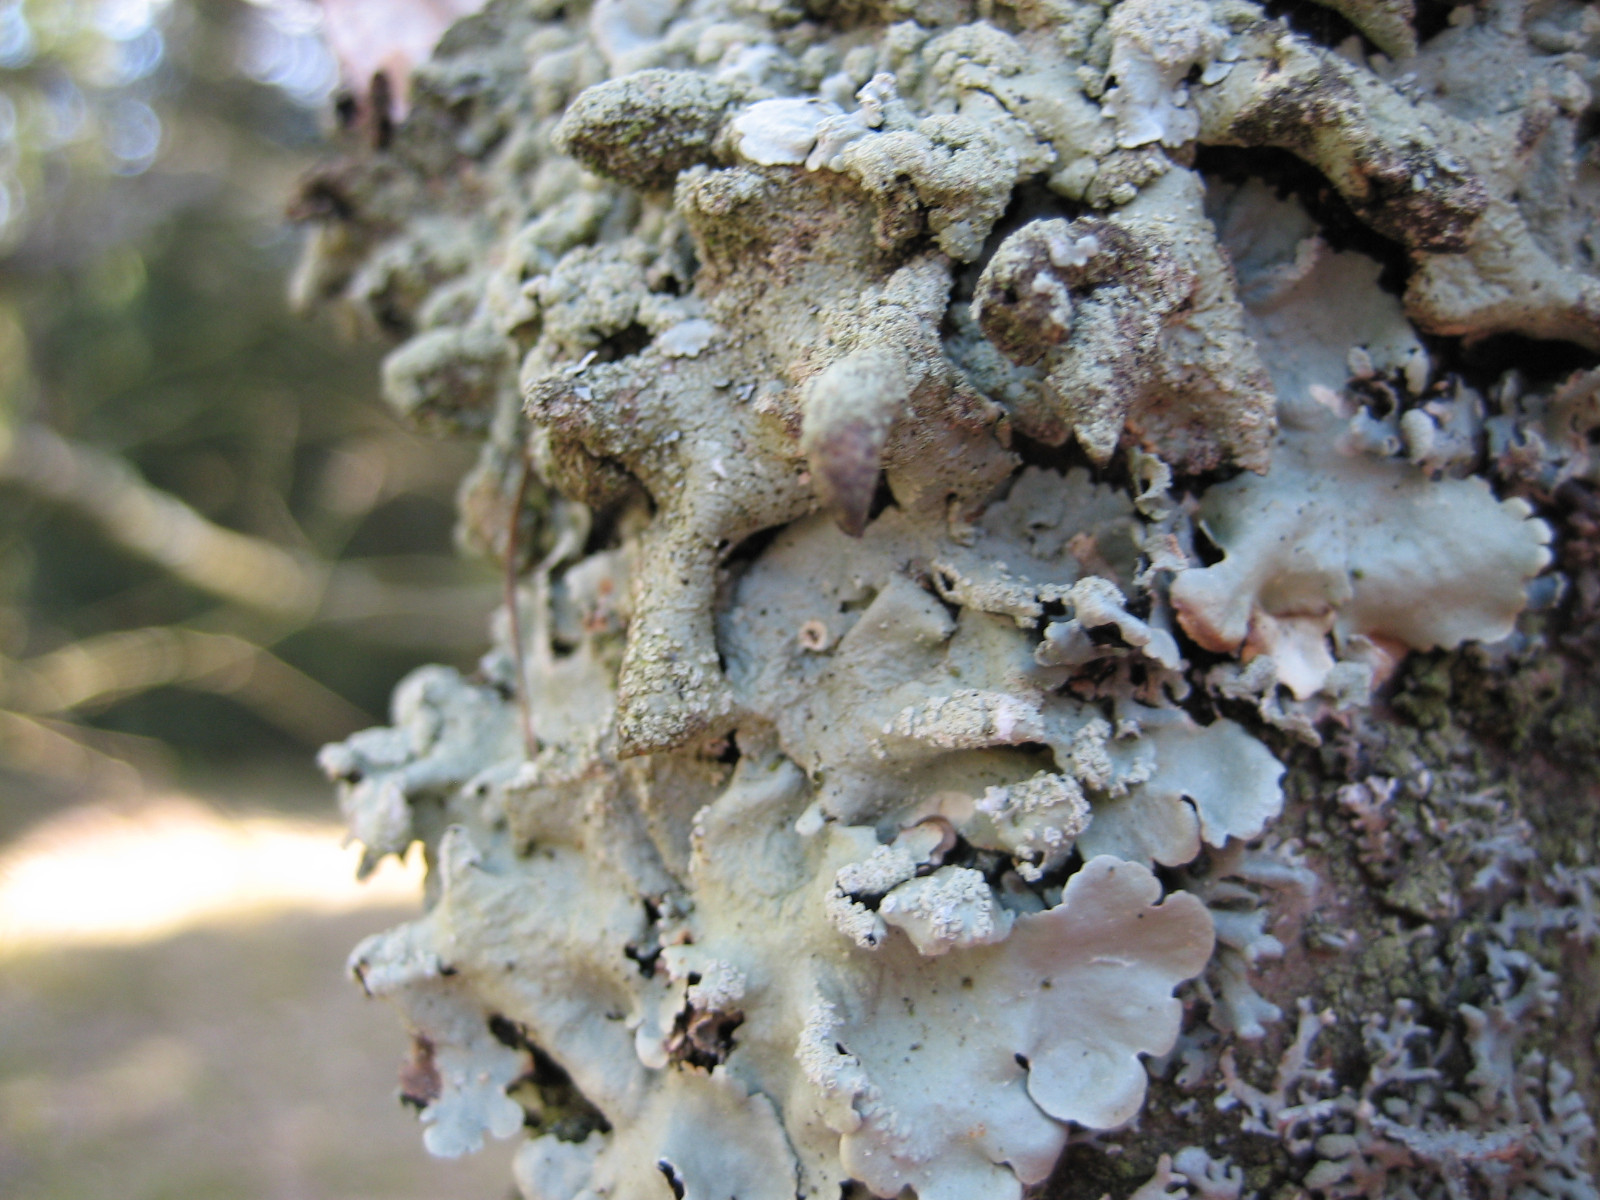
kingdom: Fungi
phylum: Ascomycota
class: Lecanoromycetes
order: Lecanorales
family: Parmeliaceae
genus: Flavoparmelia
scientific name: Flavoparmelia caperata
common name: gulgrøn skållav
